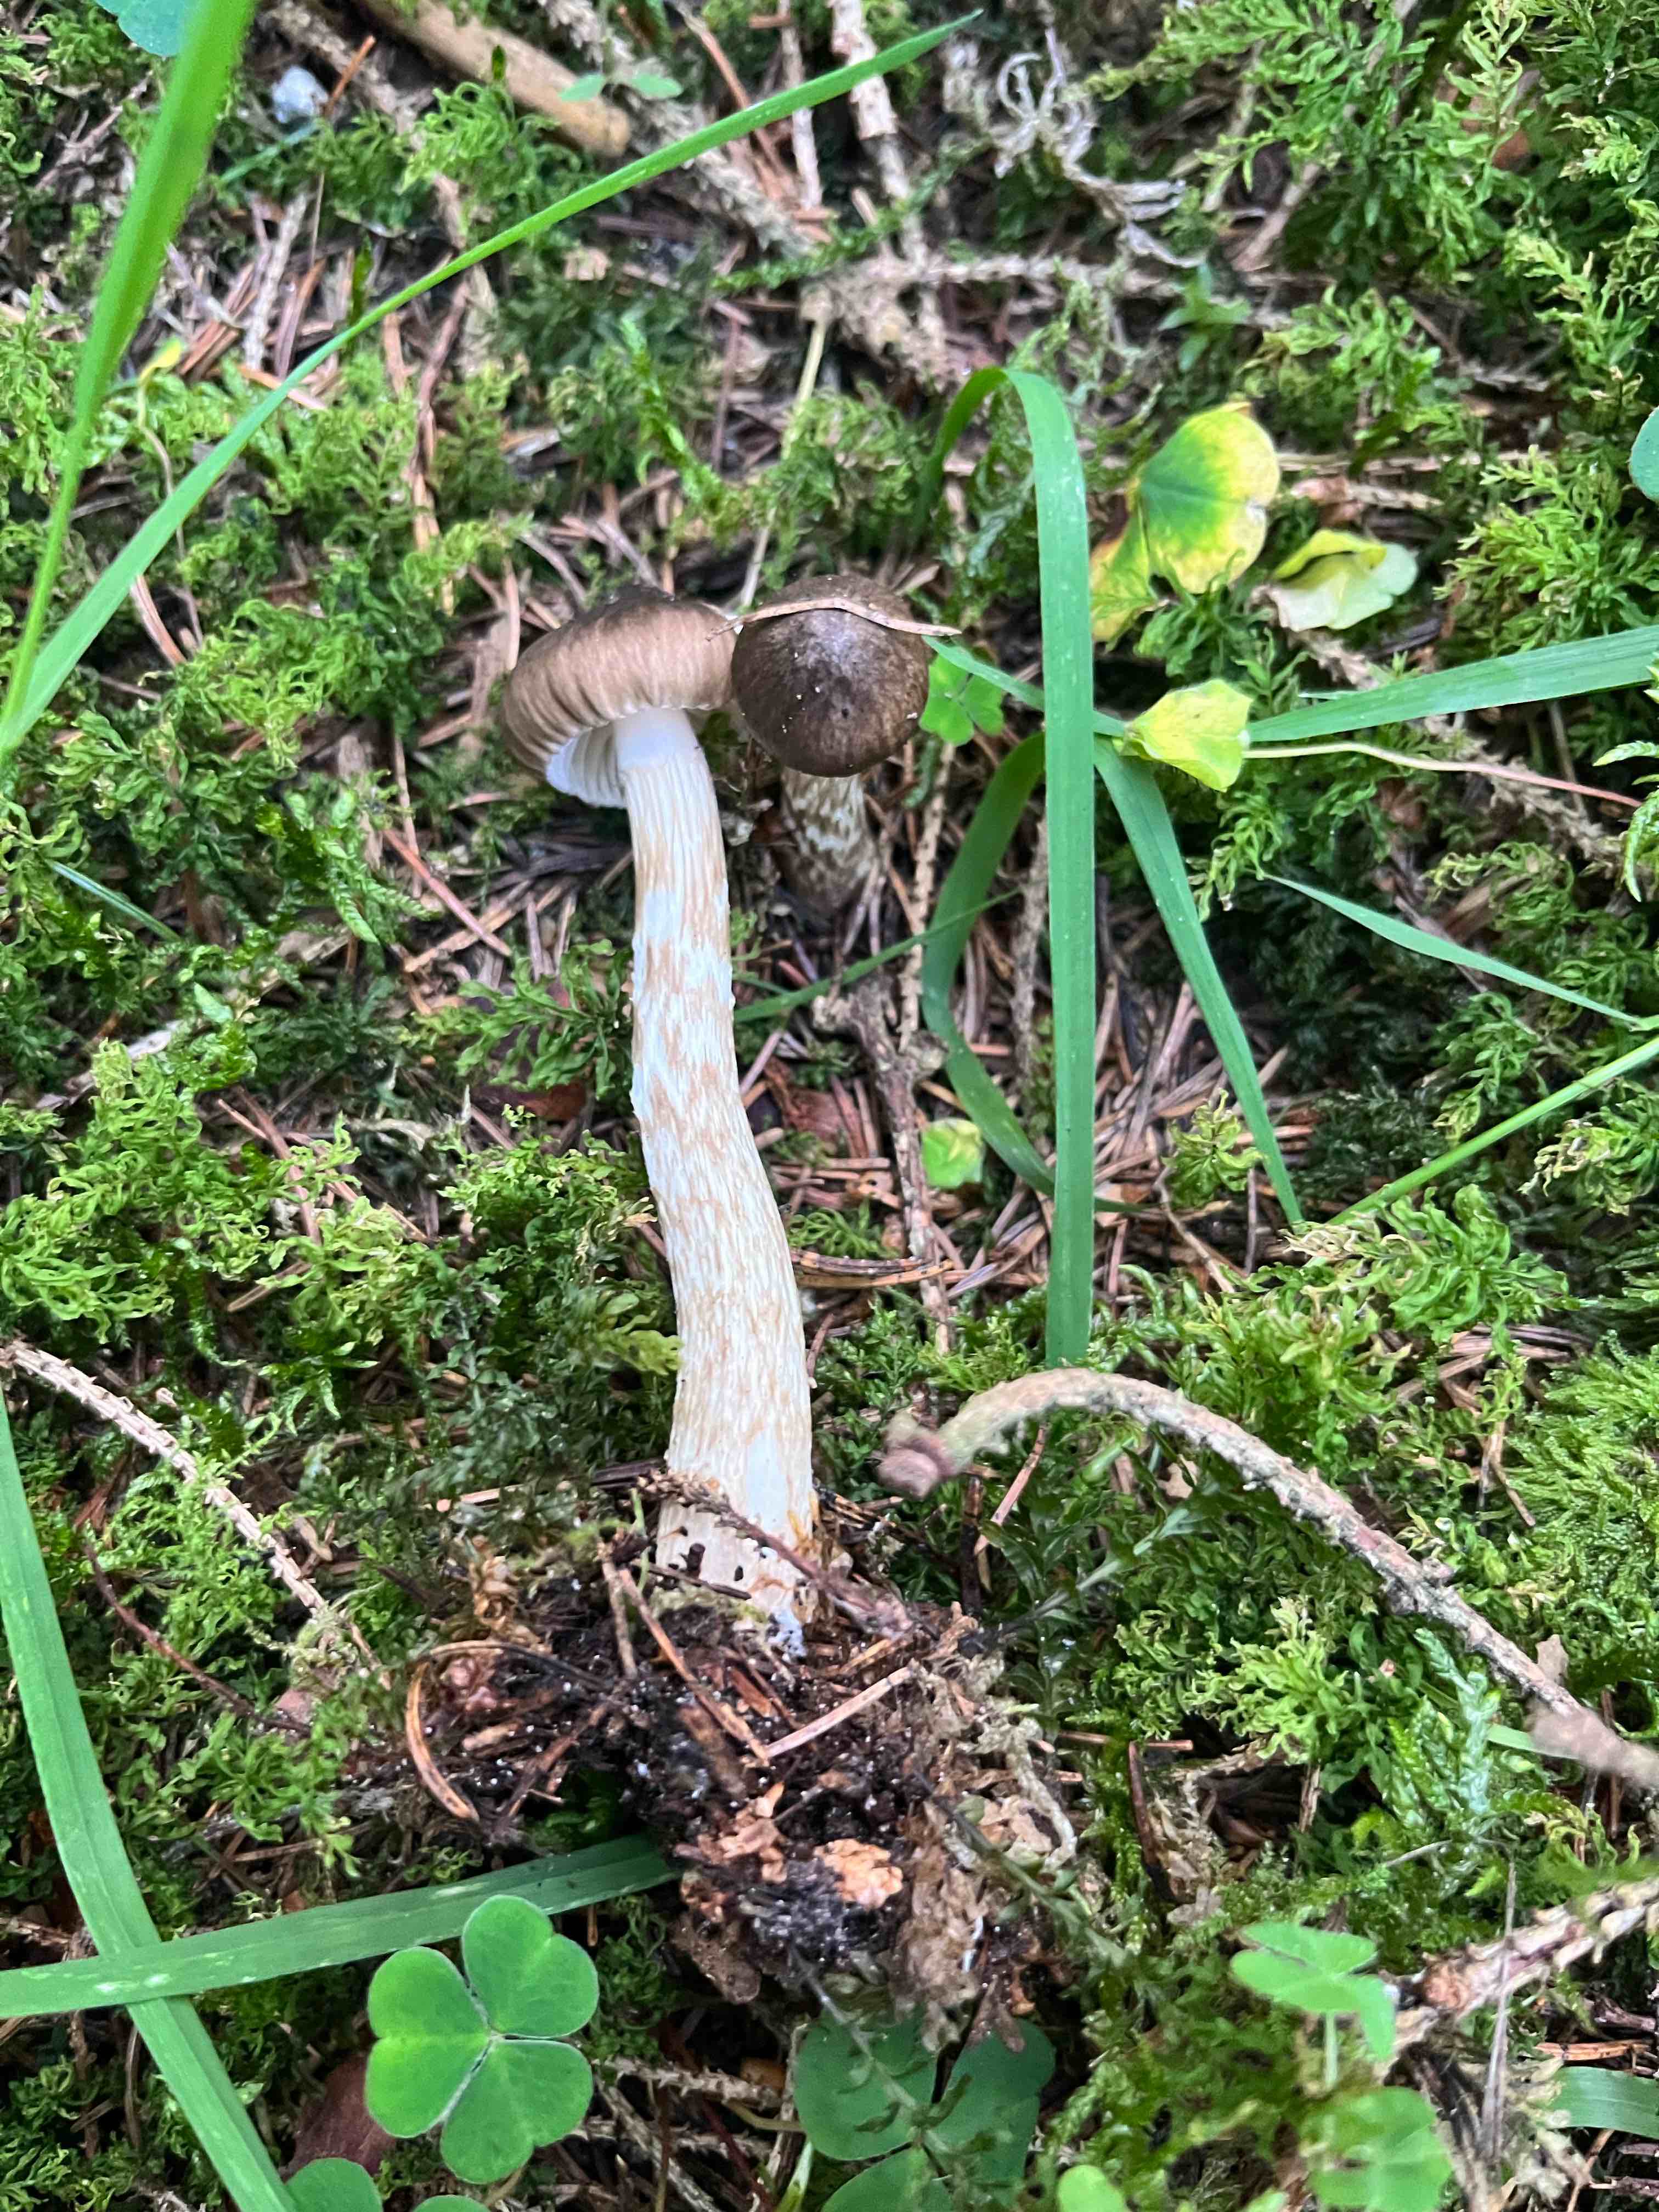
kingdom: Fungi
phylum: Basidiomycota
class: Agaricomycetes
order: Agaricales
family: Hygrophoraceae
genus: Hygrophorus
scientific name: Hygrophorus olivaceoalbus
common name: hvidbrun sneglehat
